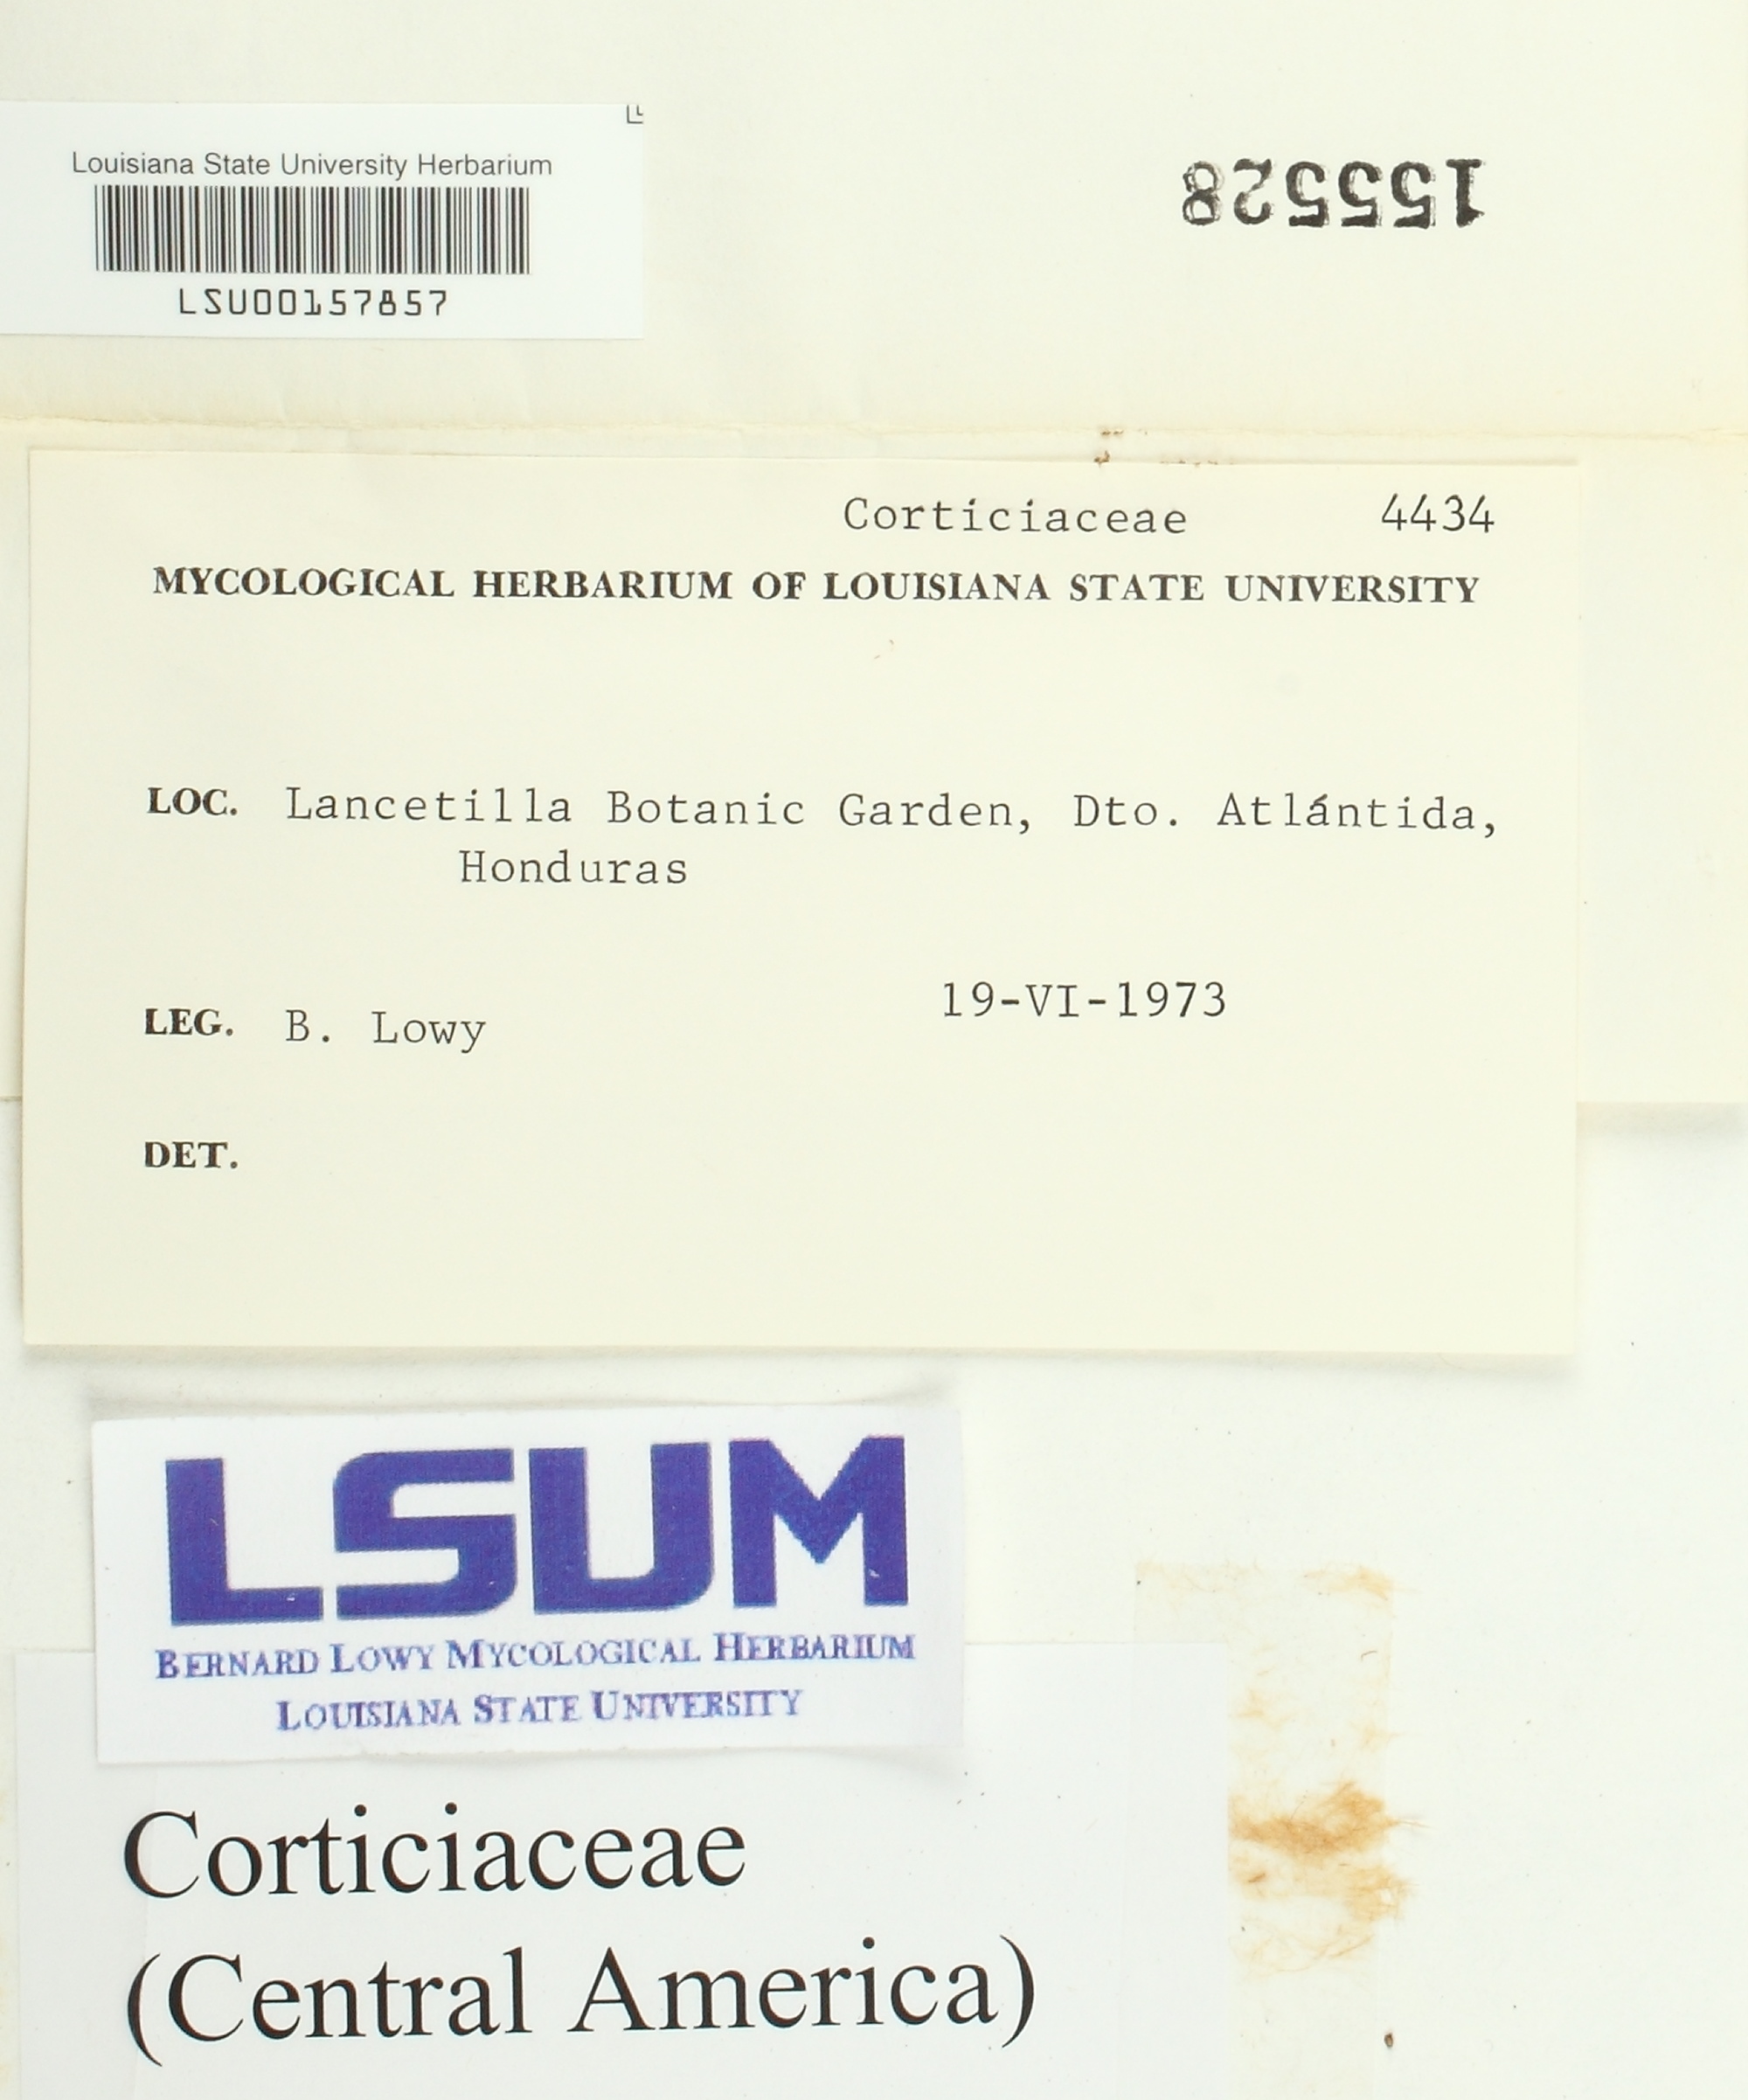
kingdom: Fungi
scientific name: Fungi
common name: Fungi
